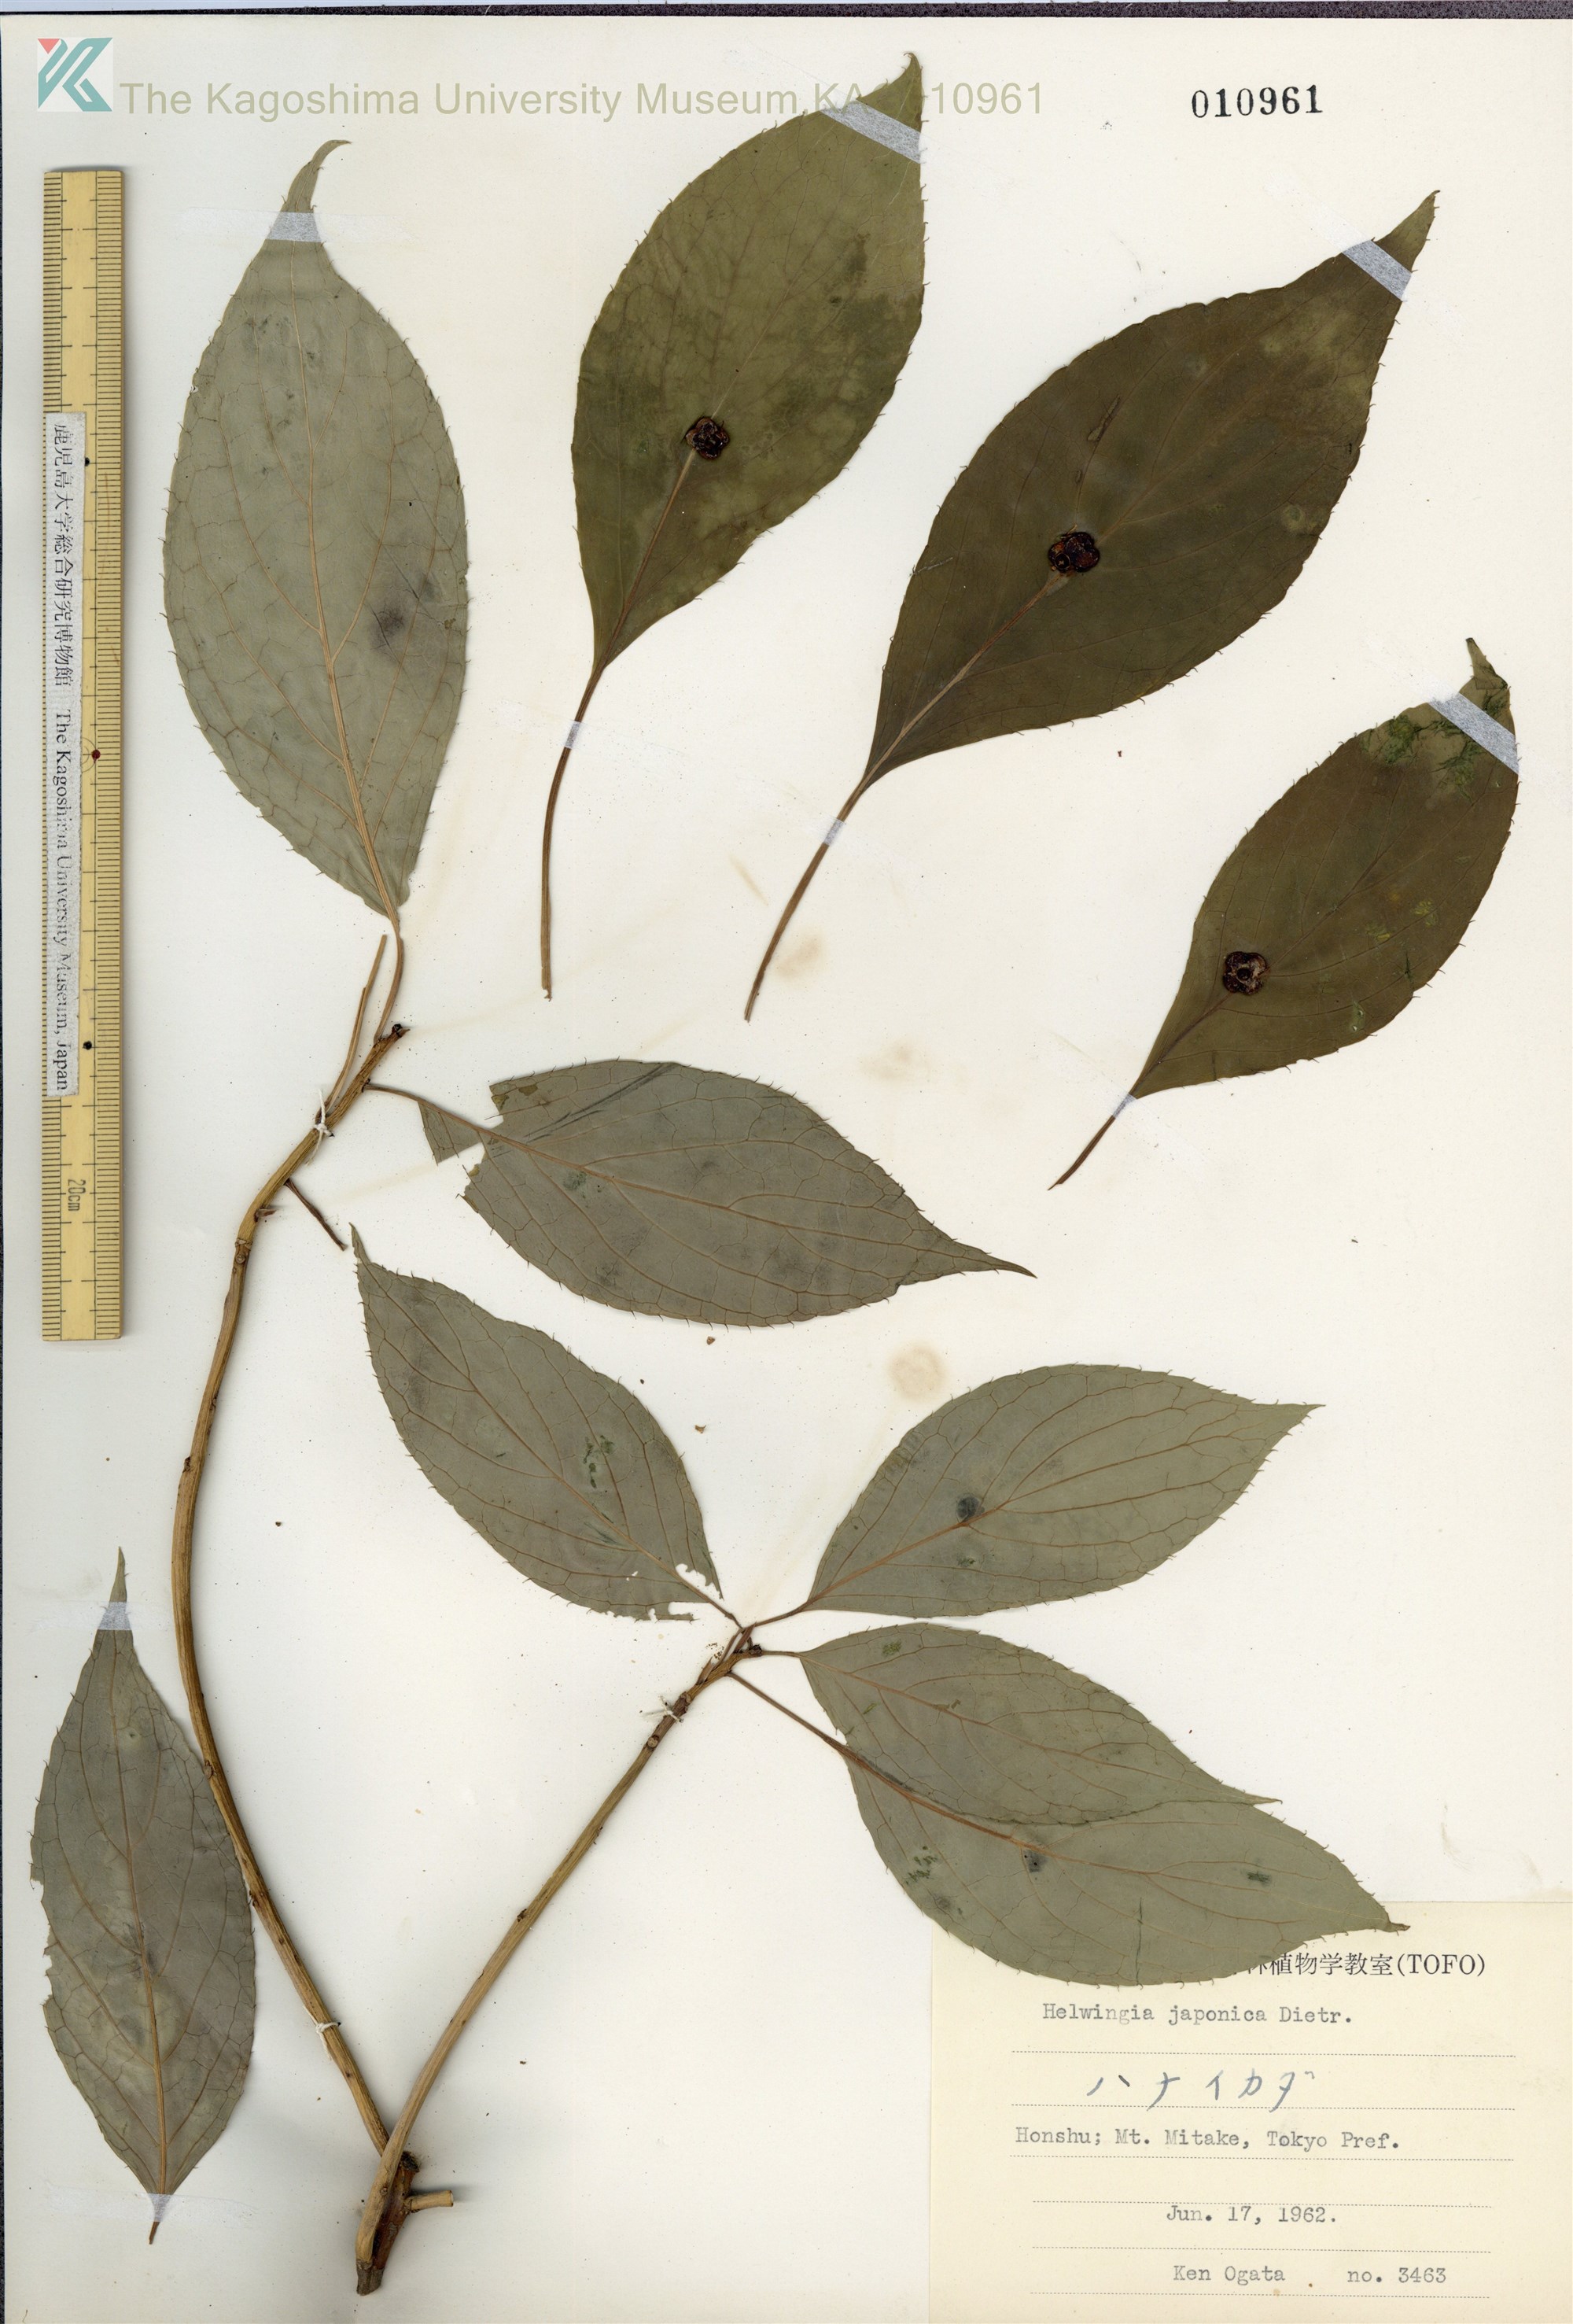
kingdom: Plantae
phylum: Tracheophyta
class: Magnoliopsida
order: Aquifoliales
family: Helwingiaceae
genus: Helwingia
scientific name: Helwingia japonica
